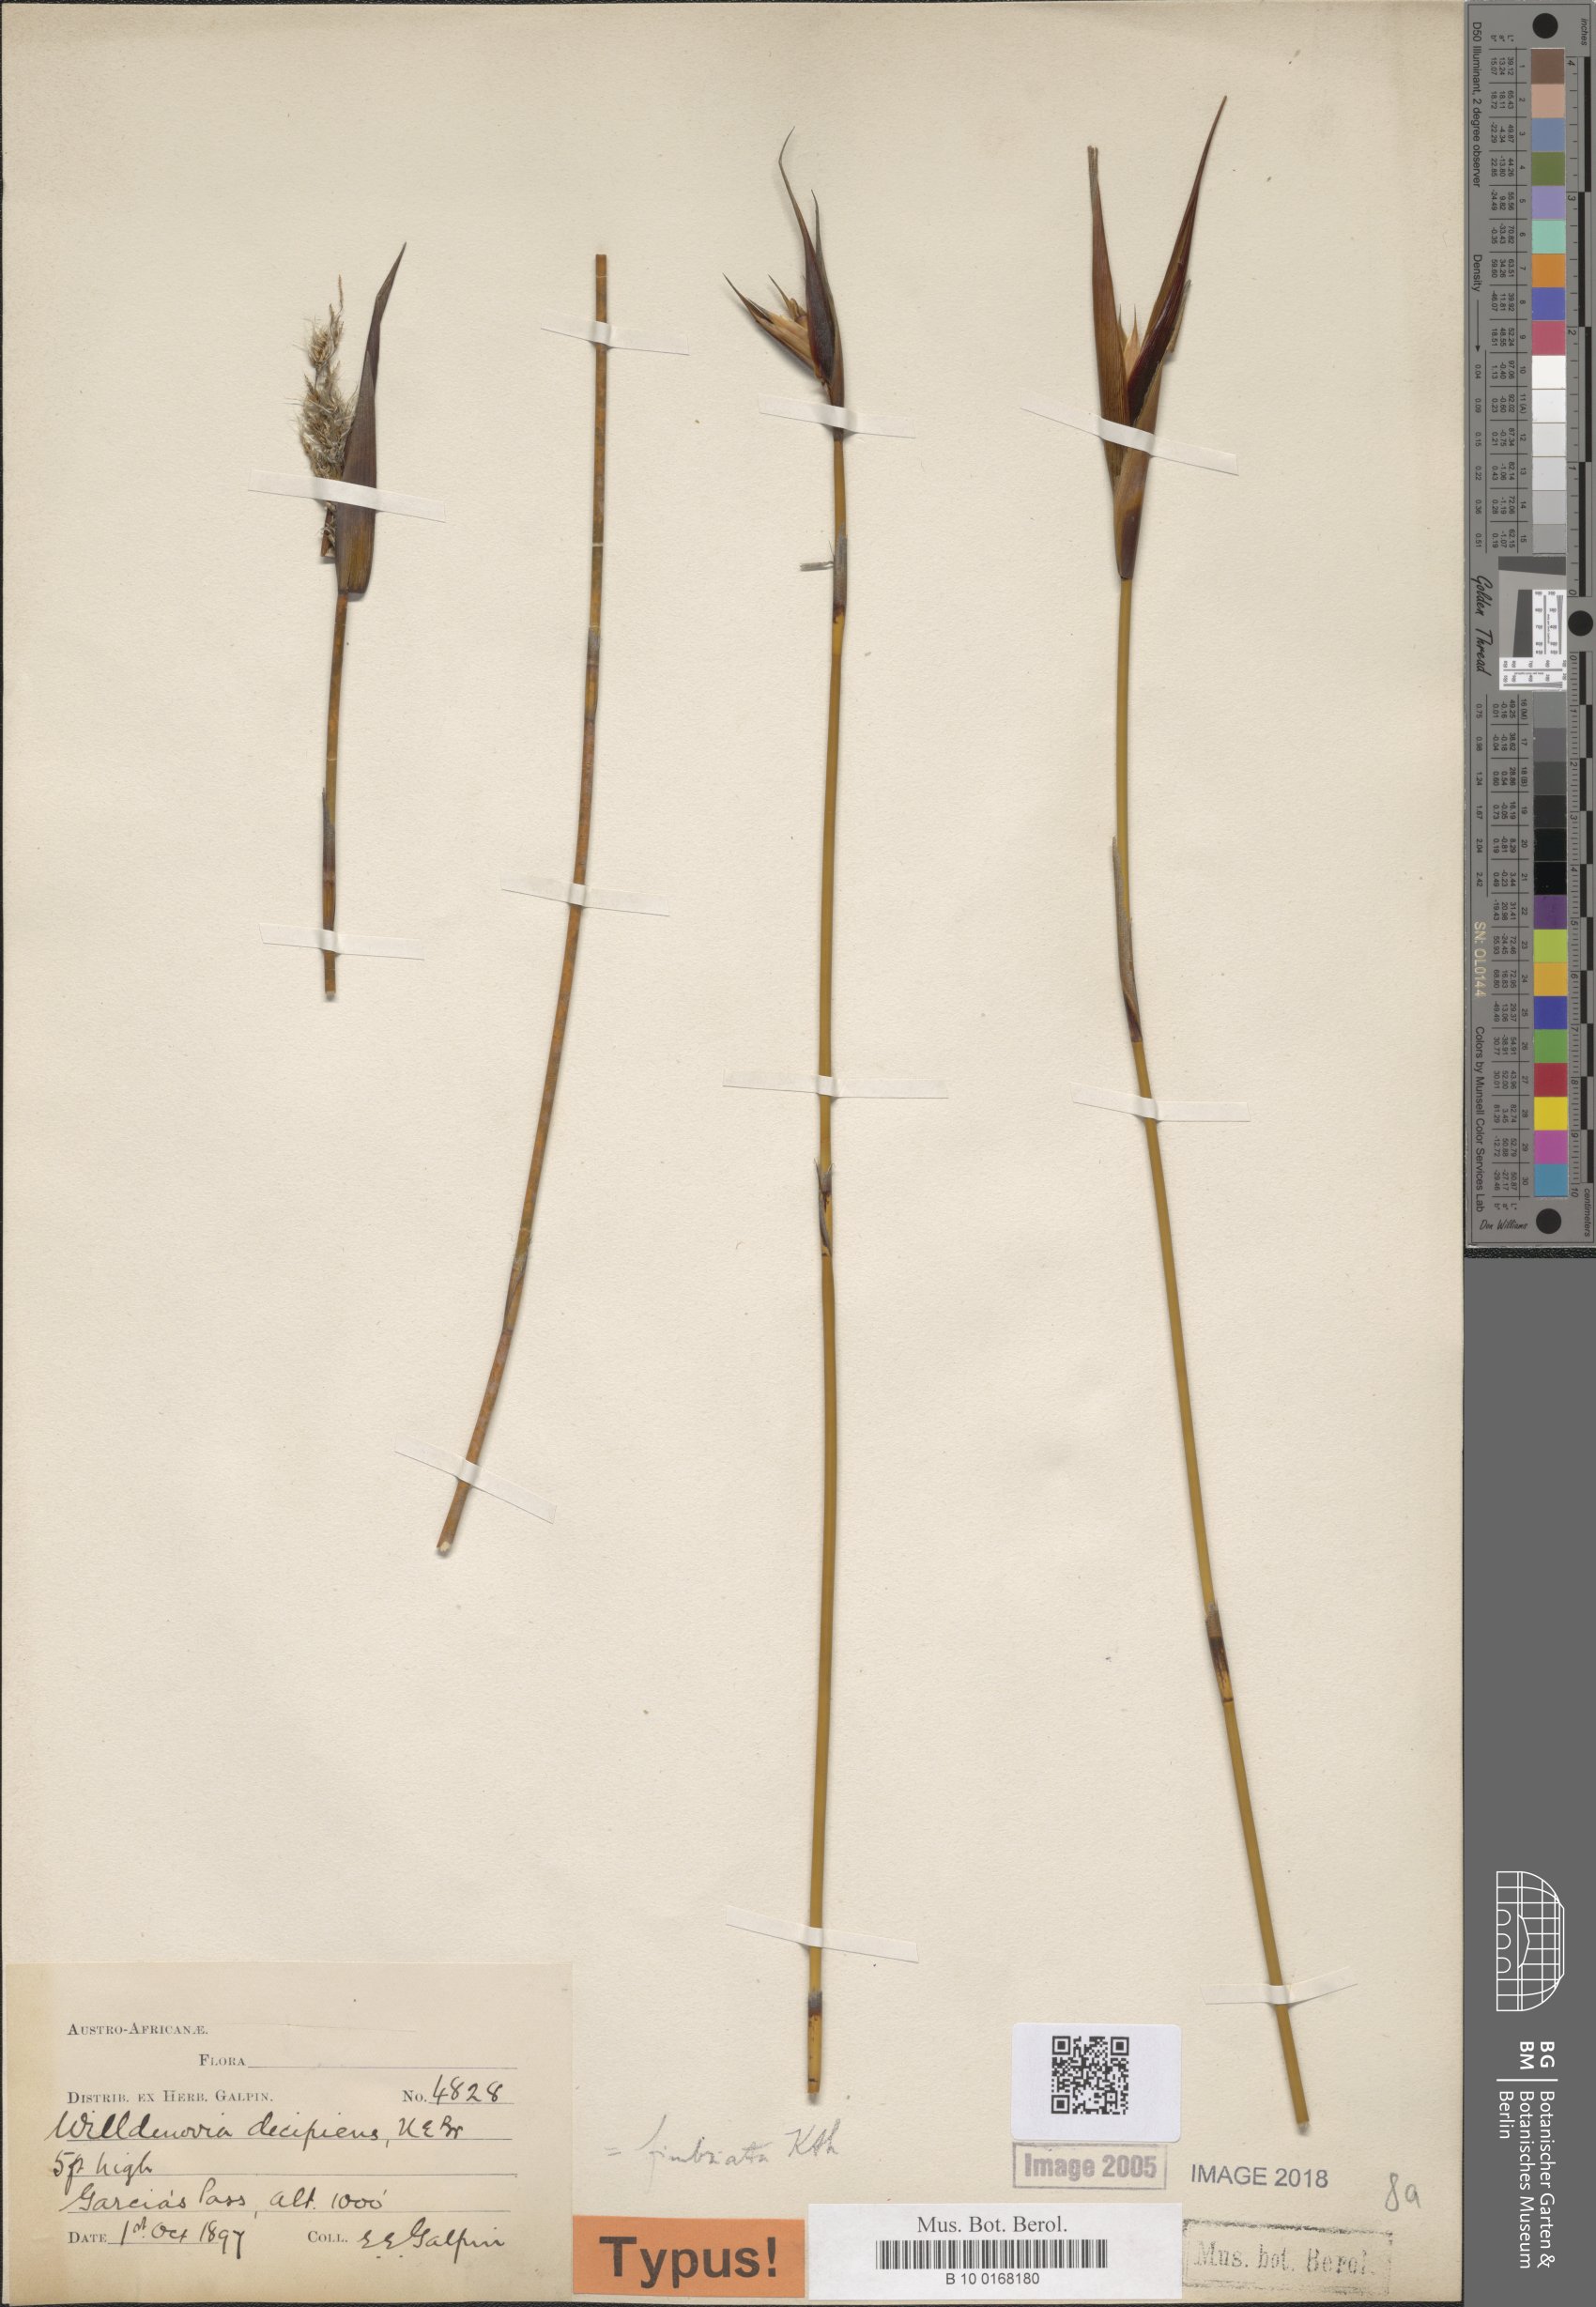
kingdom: Plantae
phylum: Tracheophyta
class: Liliopsida
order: Poales
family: Restionaceae
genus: Ceratocaryum
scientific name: Ceratocaryum fimbriatum
